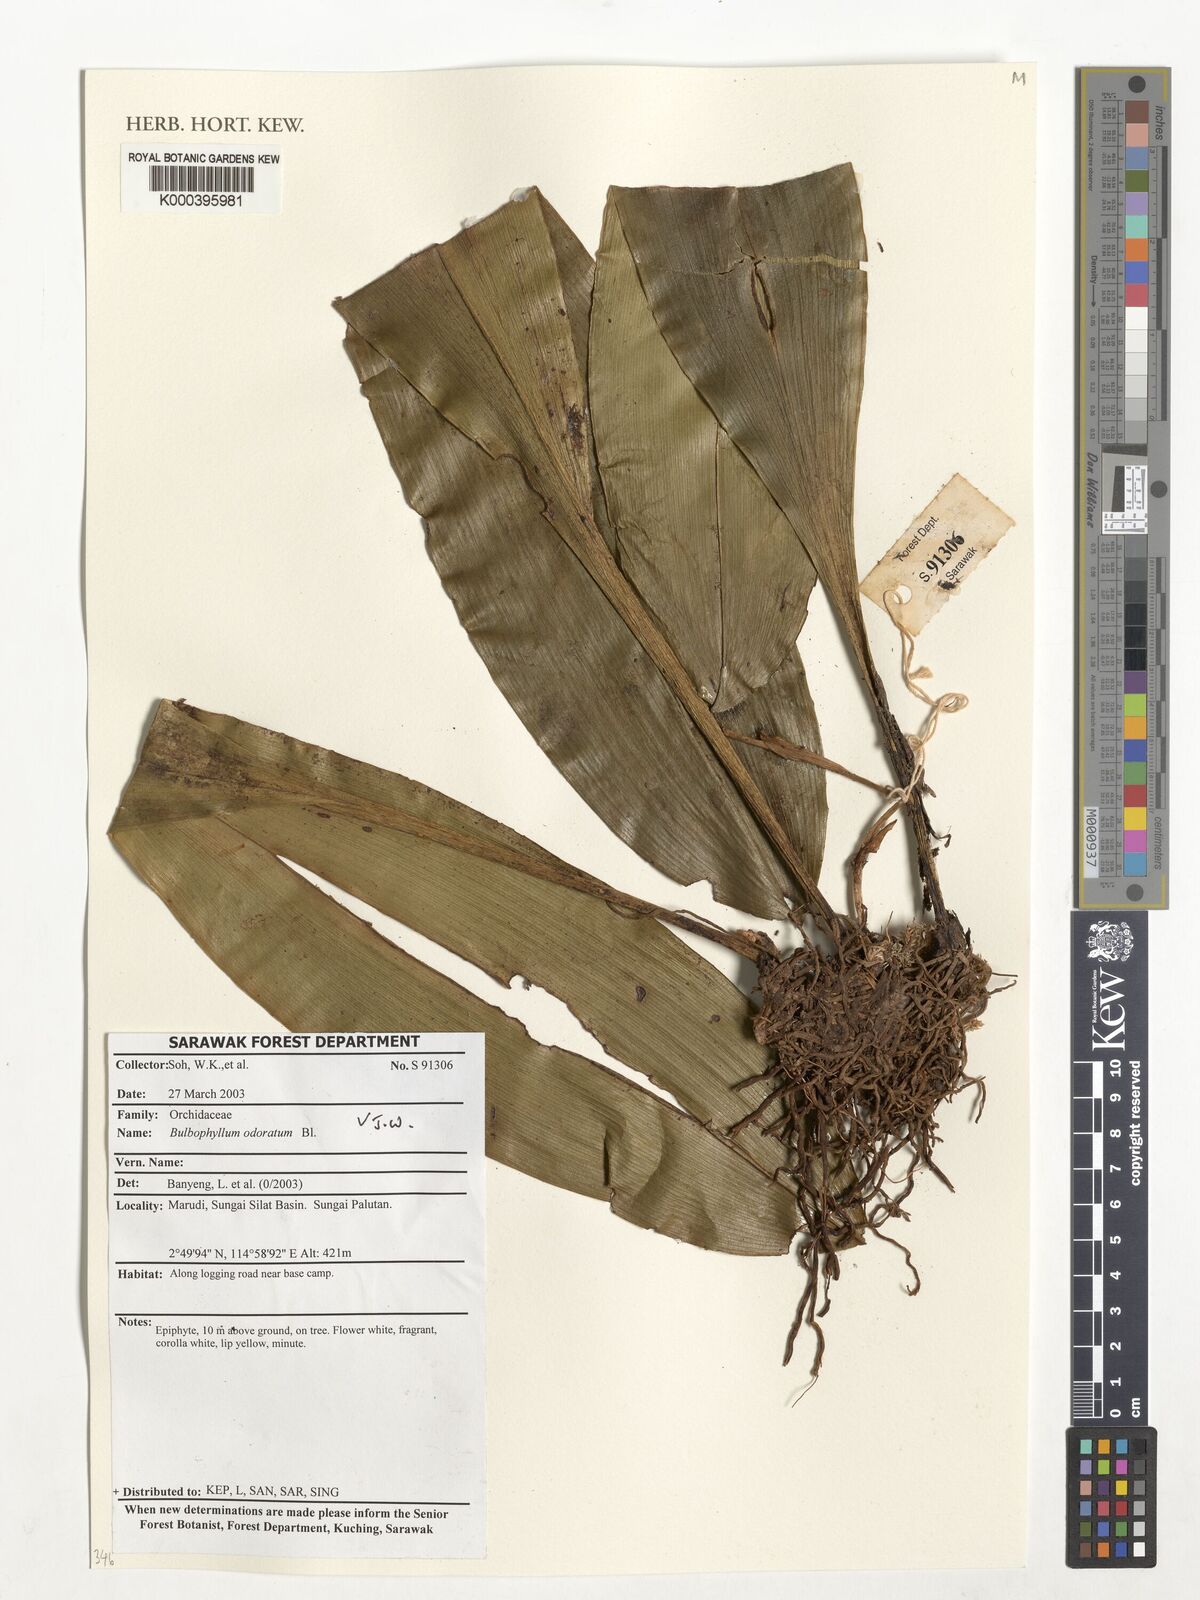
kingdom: Plantae
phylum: Tracheophyta
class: Liliopsida
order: Asparagales
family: Orchidaceae
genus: Bulbophyllum
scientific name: Bulbophyllum odoratum
